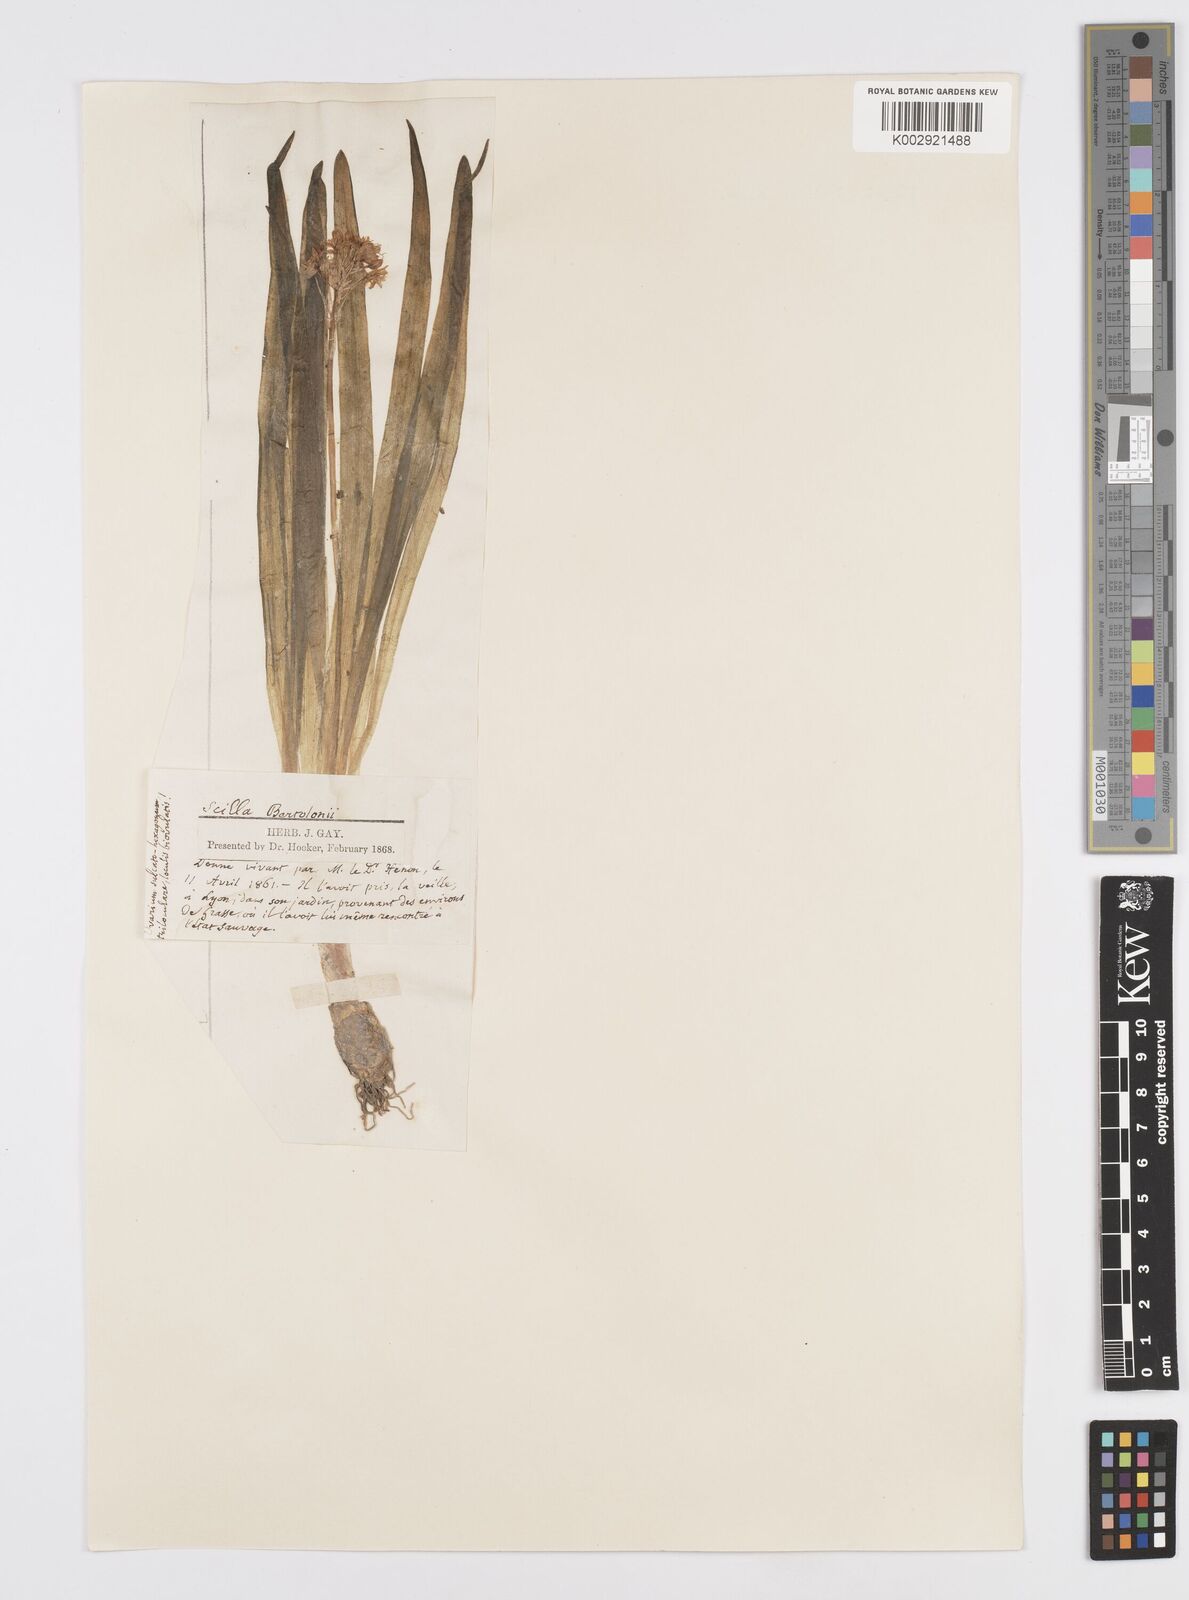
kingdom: Plantae
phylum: Tracheophyta
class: Liliopsida
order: Asparagales
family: Asparagaceae
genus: Hyacinthoides
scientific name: Hyacinthoides italica
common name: Italian bluebell
